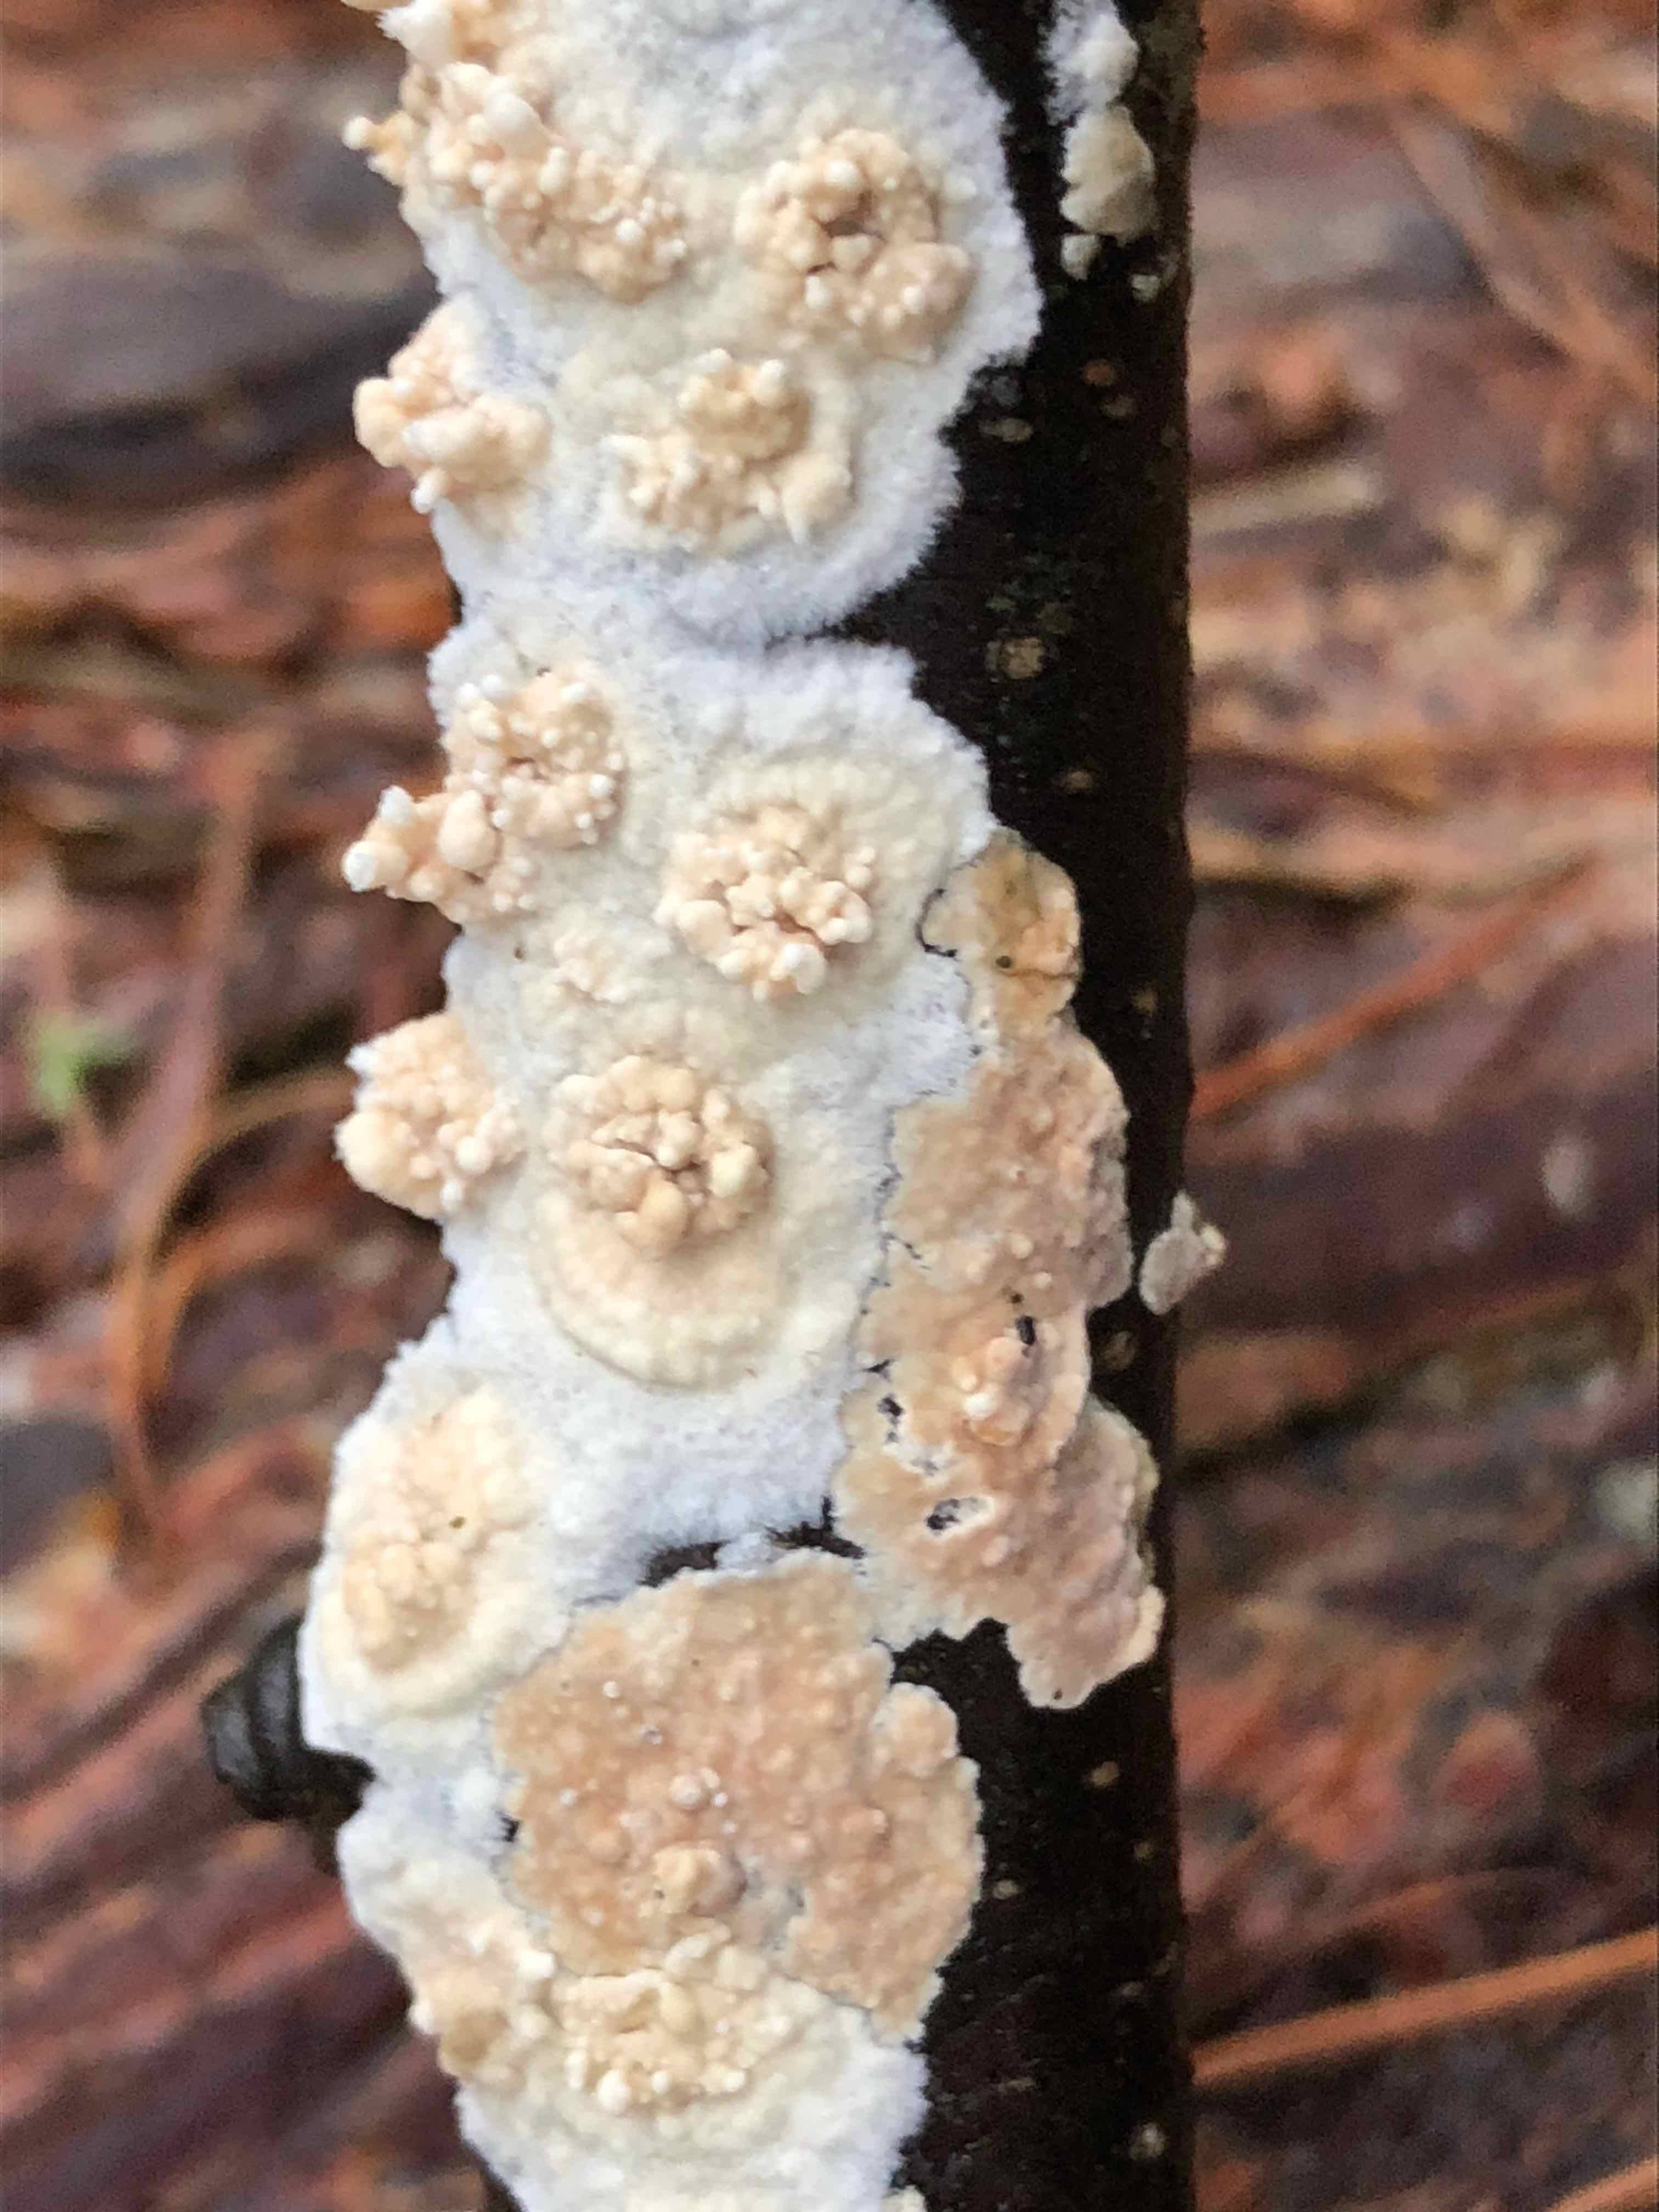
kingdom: Fungi
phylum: Basidiomycota
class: Agaricomycetes
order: Hymenochaetales
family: Schizoporaceae
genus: Xylodon
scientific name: Xylodon radula
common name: grovtandet kalkskind
